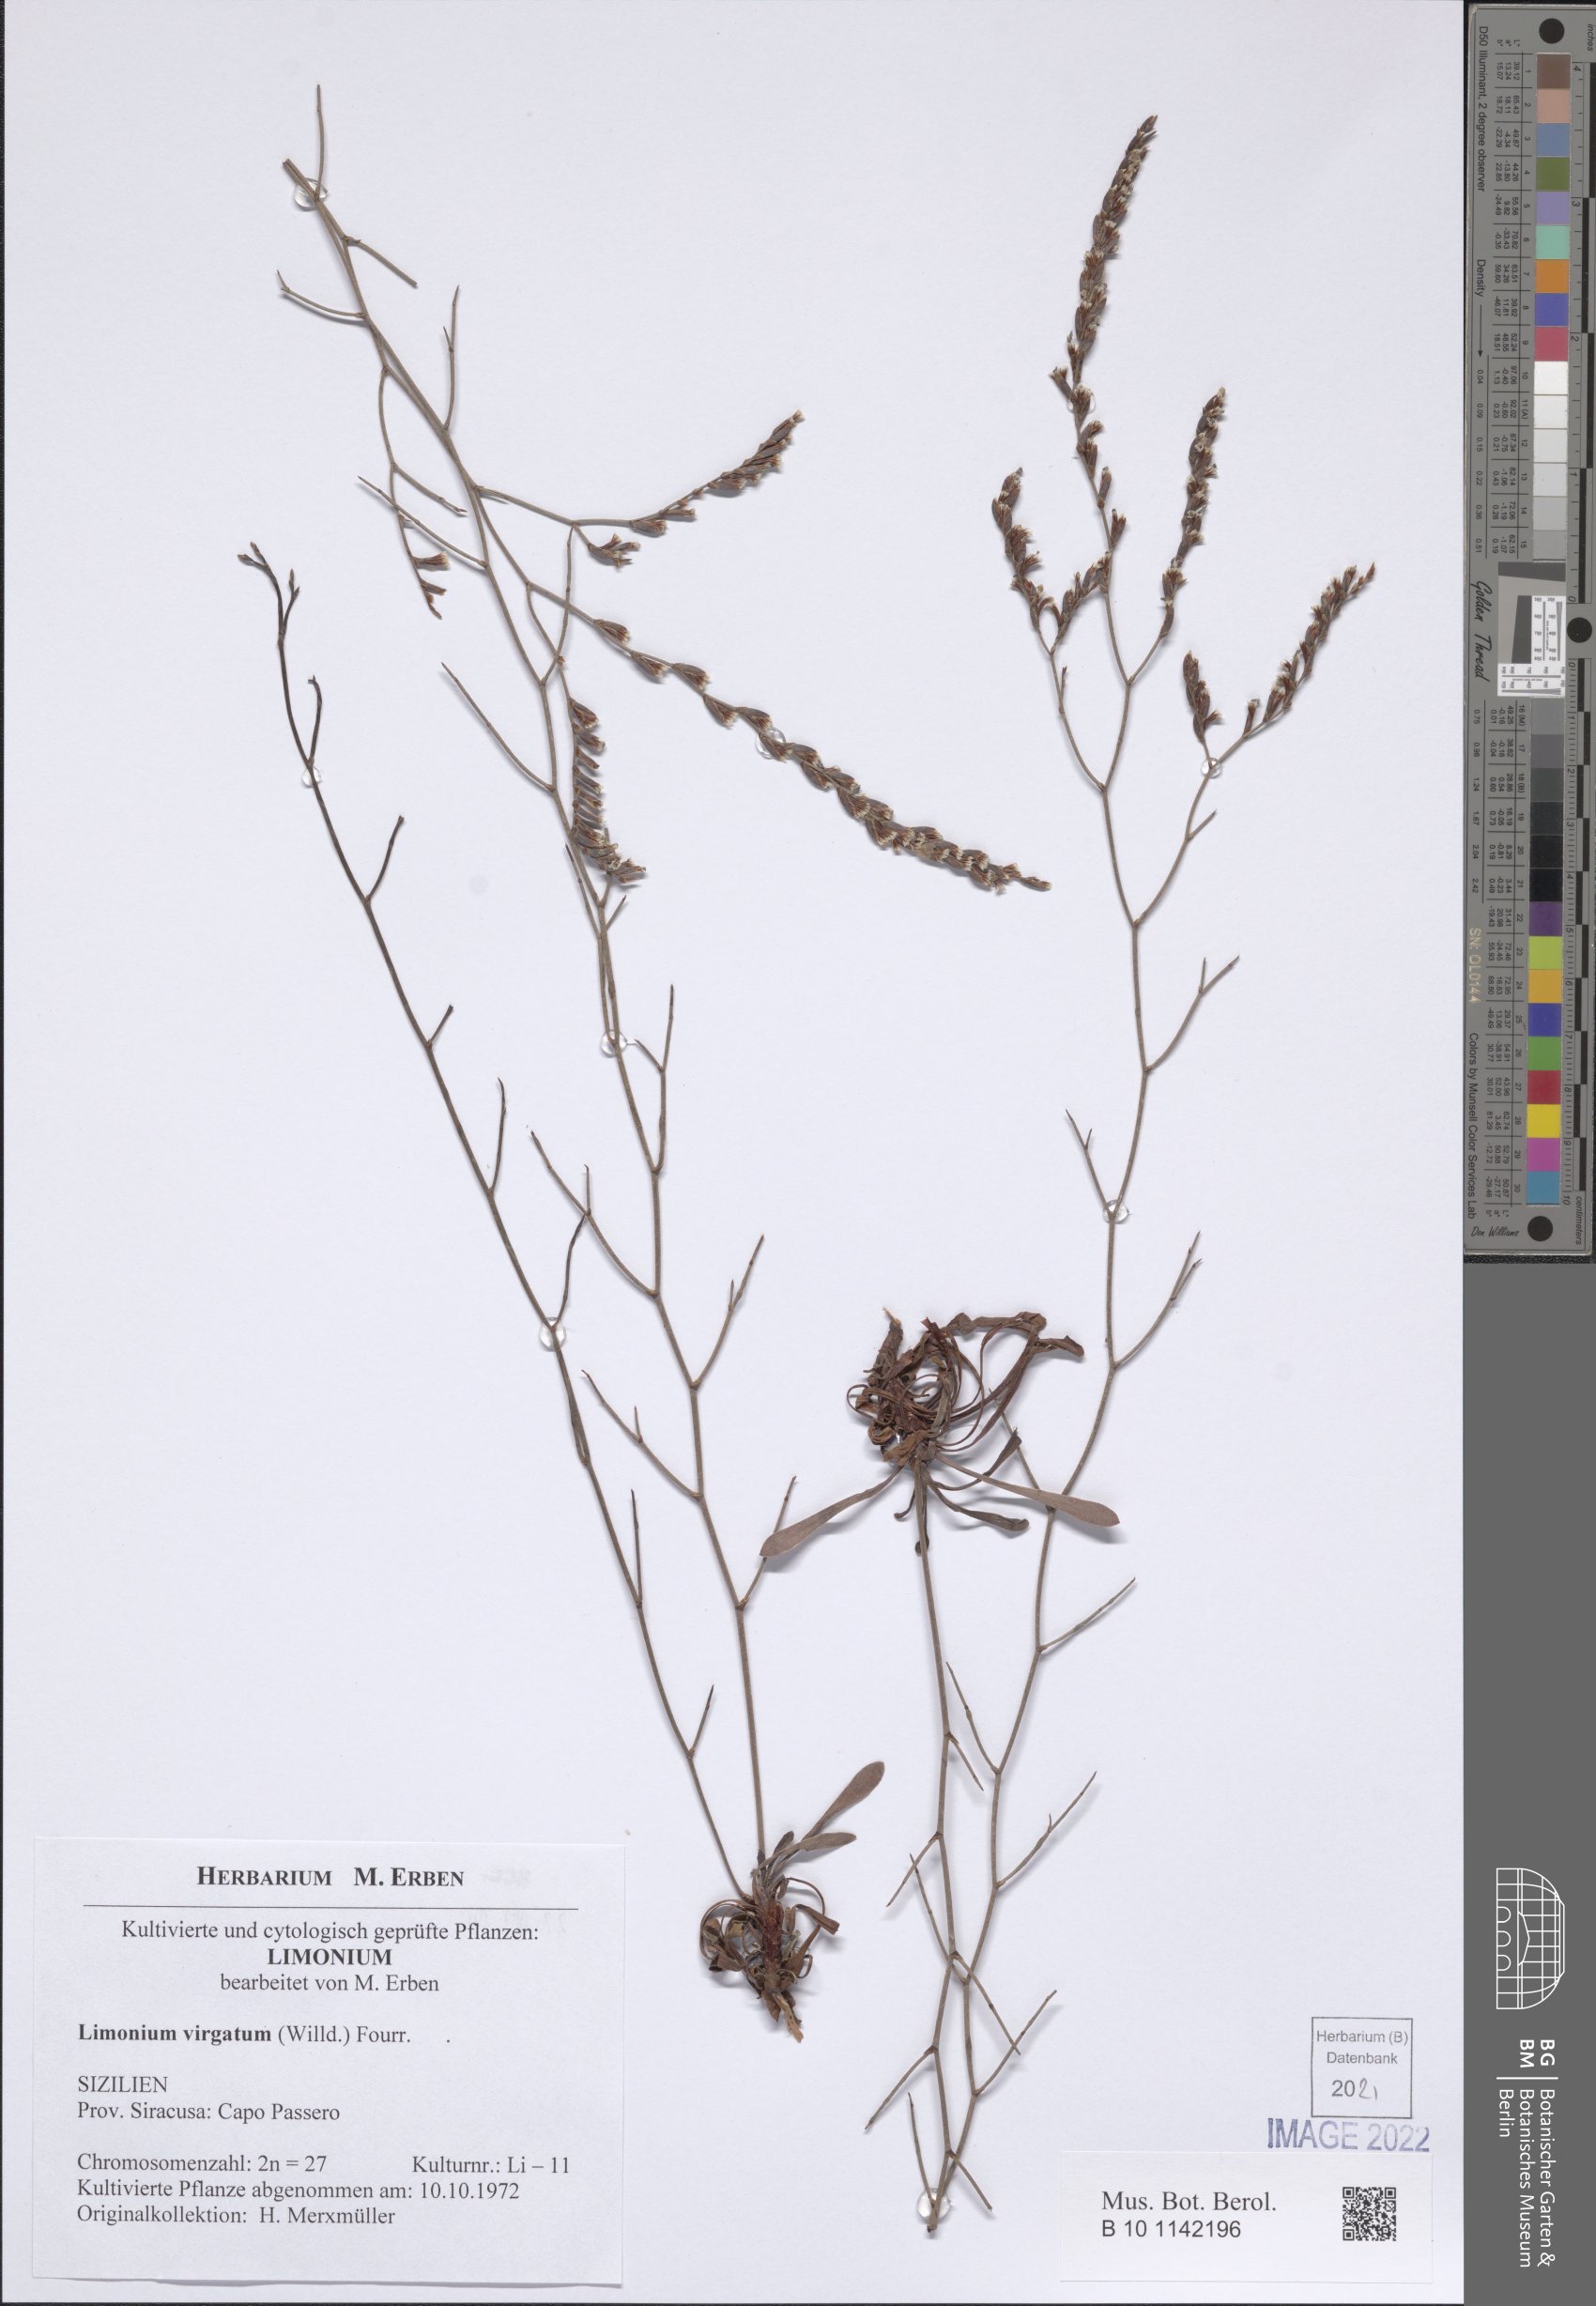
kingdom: Plantae
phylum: Tracheophyta
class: Magnoliopsida
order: Caryophyllales
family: Plumbaginaceae
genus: Limonium
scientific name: Limonium virgatum
